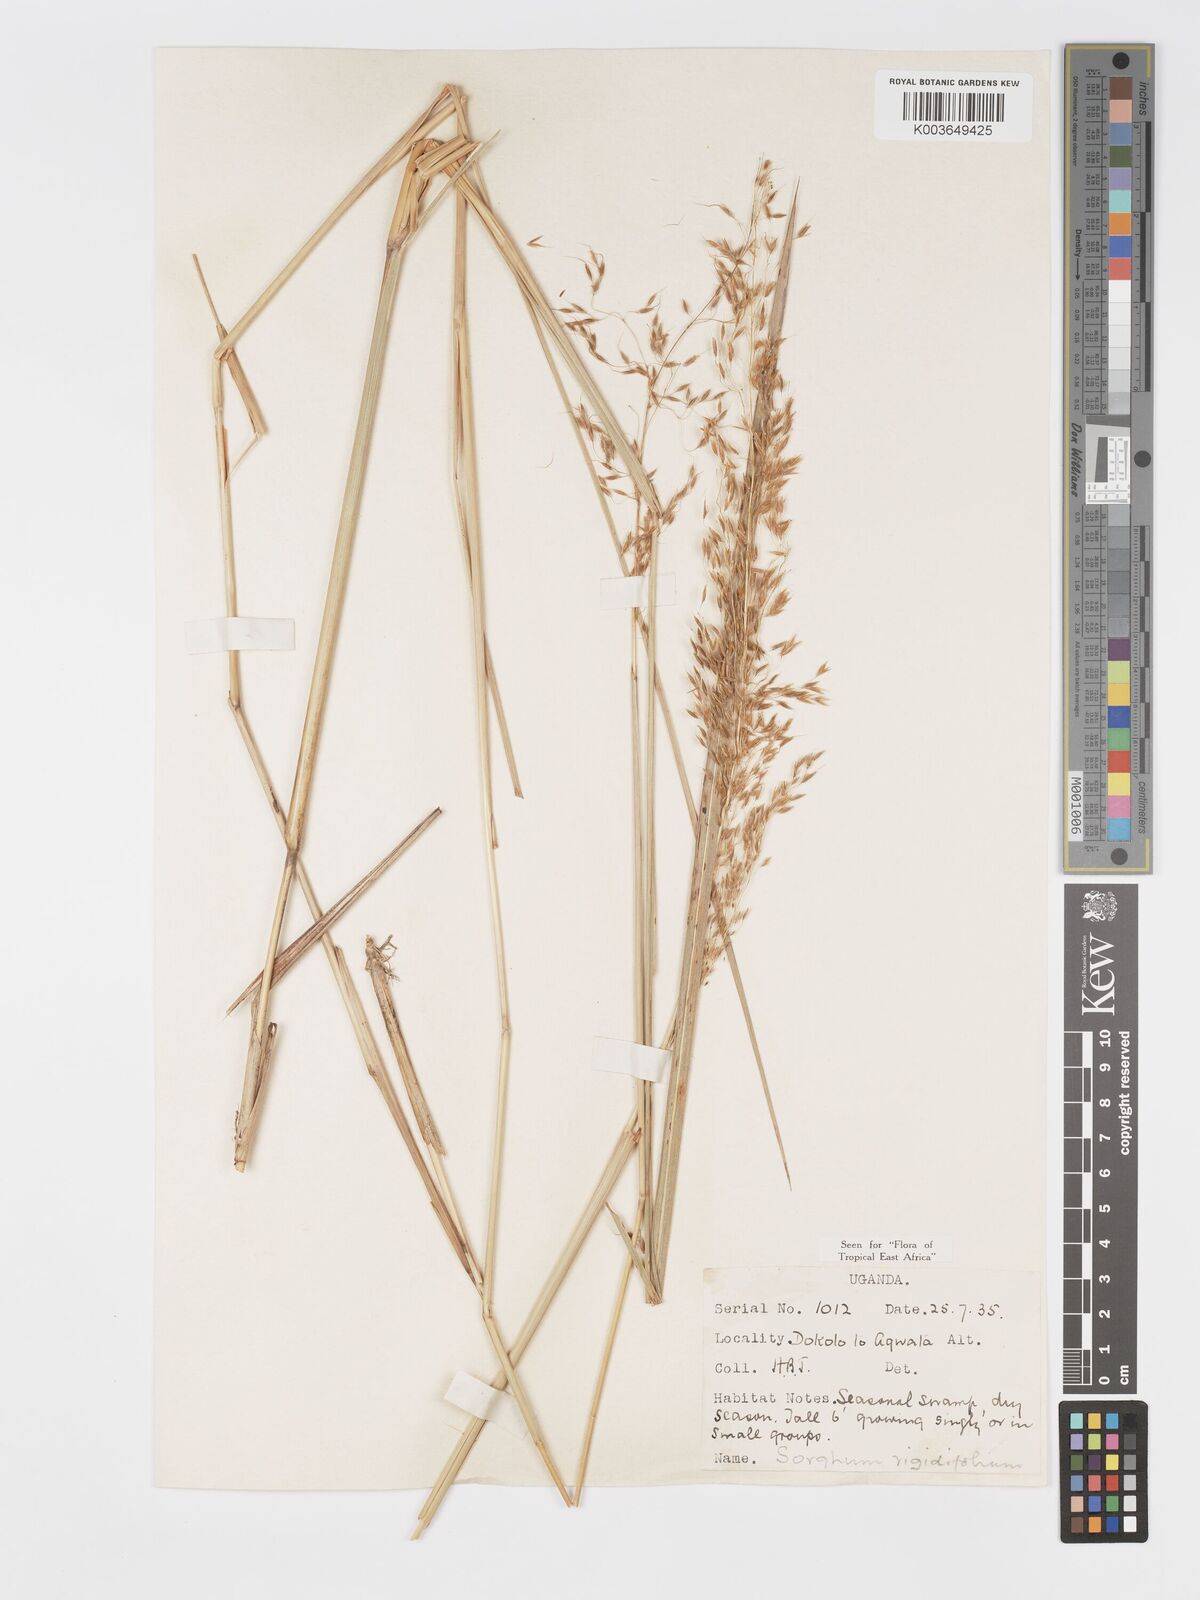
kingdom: Plantae
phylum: Tracheophyta
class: Liliopsida
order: Poales
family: Poaceae
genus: Sorghastrum
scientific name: Sorghastrum stipoides
